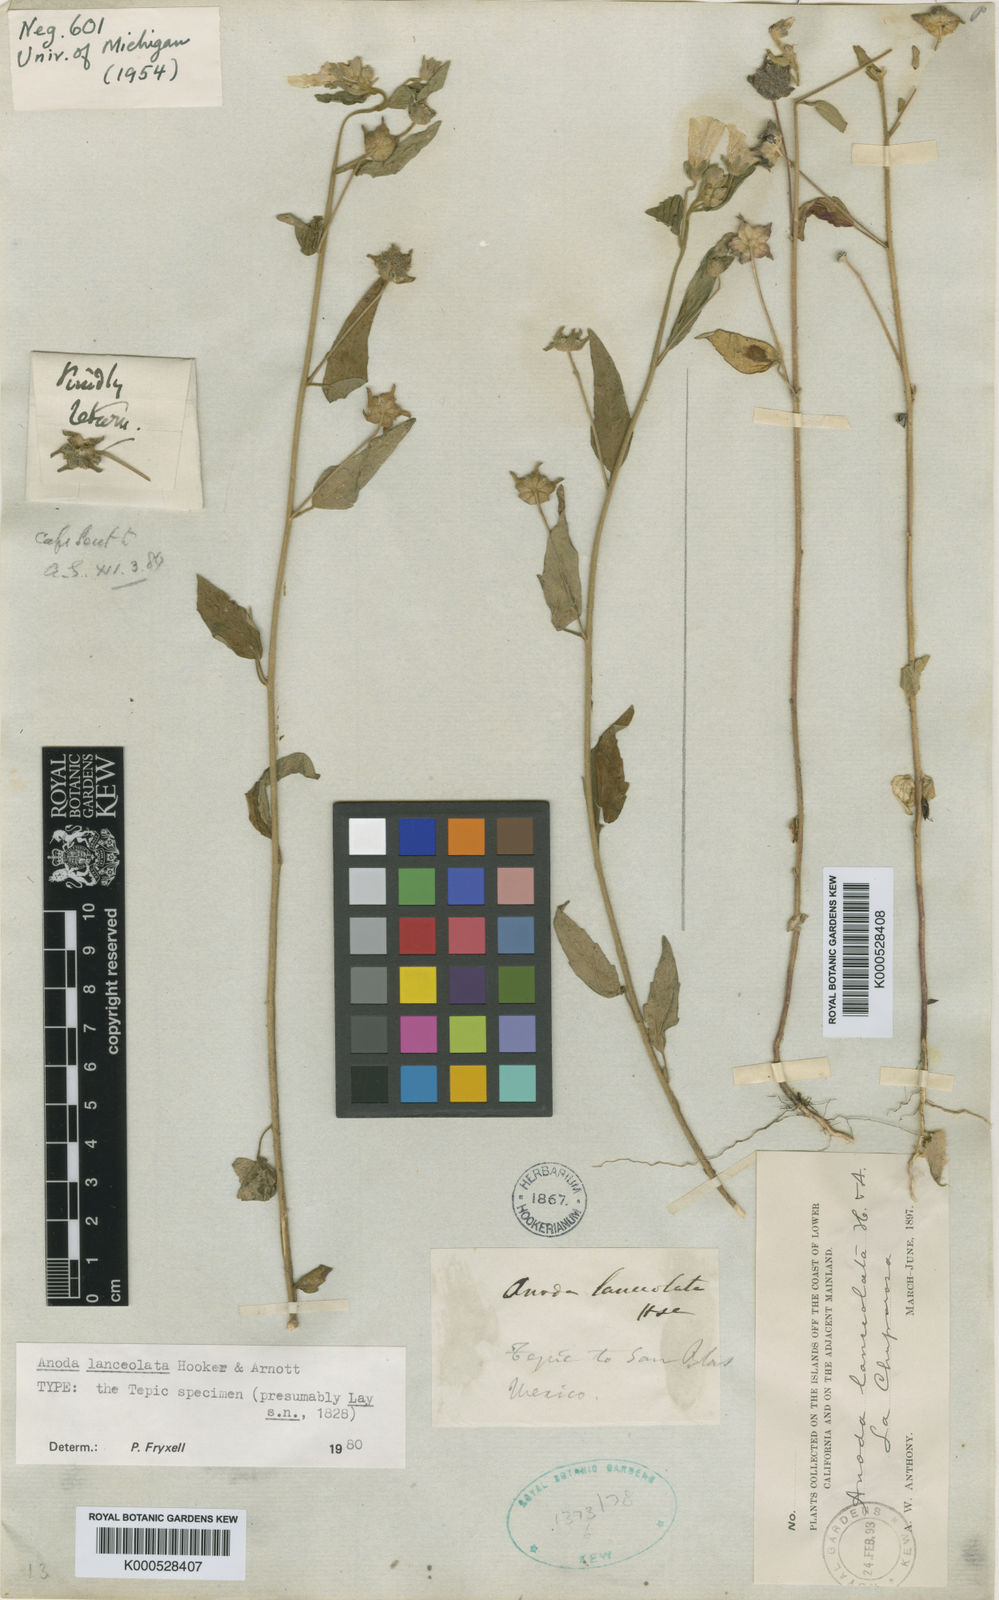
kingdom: Plantae
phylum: Tracheophyta
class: Magnoliopsida
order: Malvales
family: Malvaceae
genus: Anoda
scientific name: Anoda lanceolata
